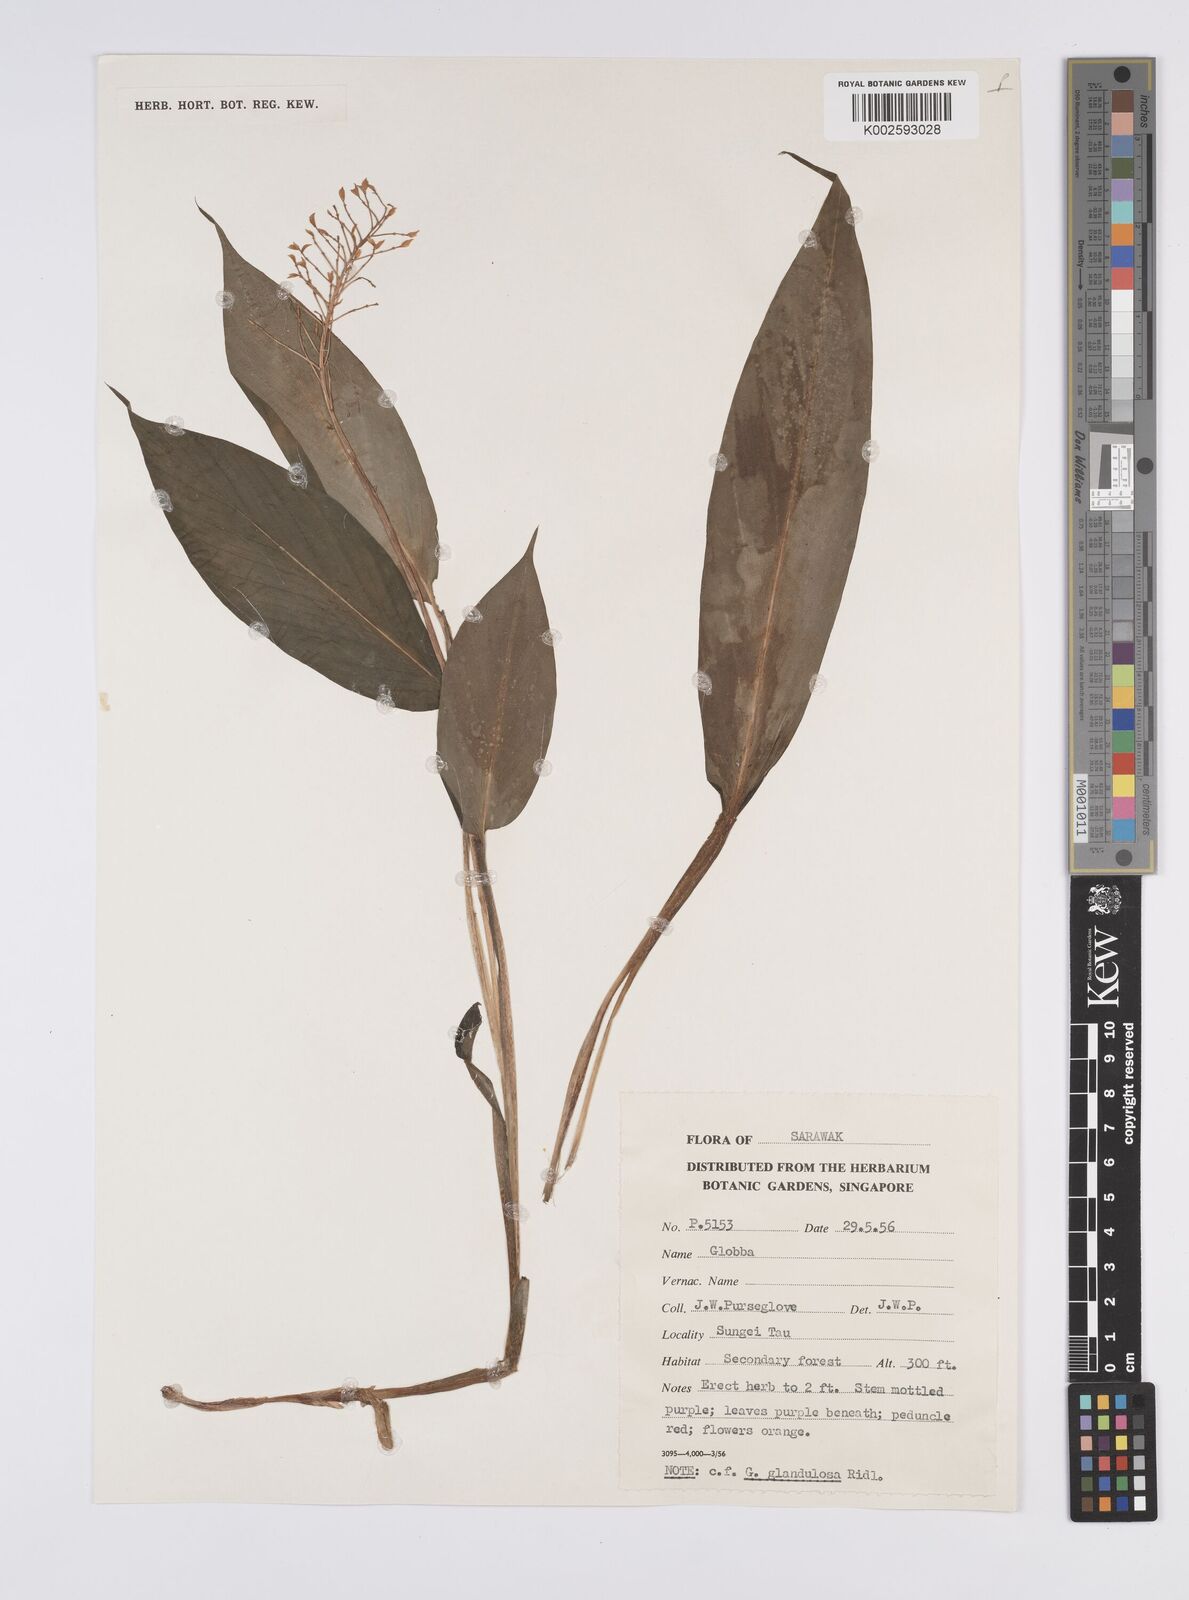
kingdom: Plantae
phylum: Tracheophyta
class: Liliopsida
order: Zingiberales
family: Zingiberaceae
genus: Globba
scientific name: Globba brachyanthera
